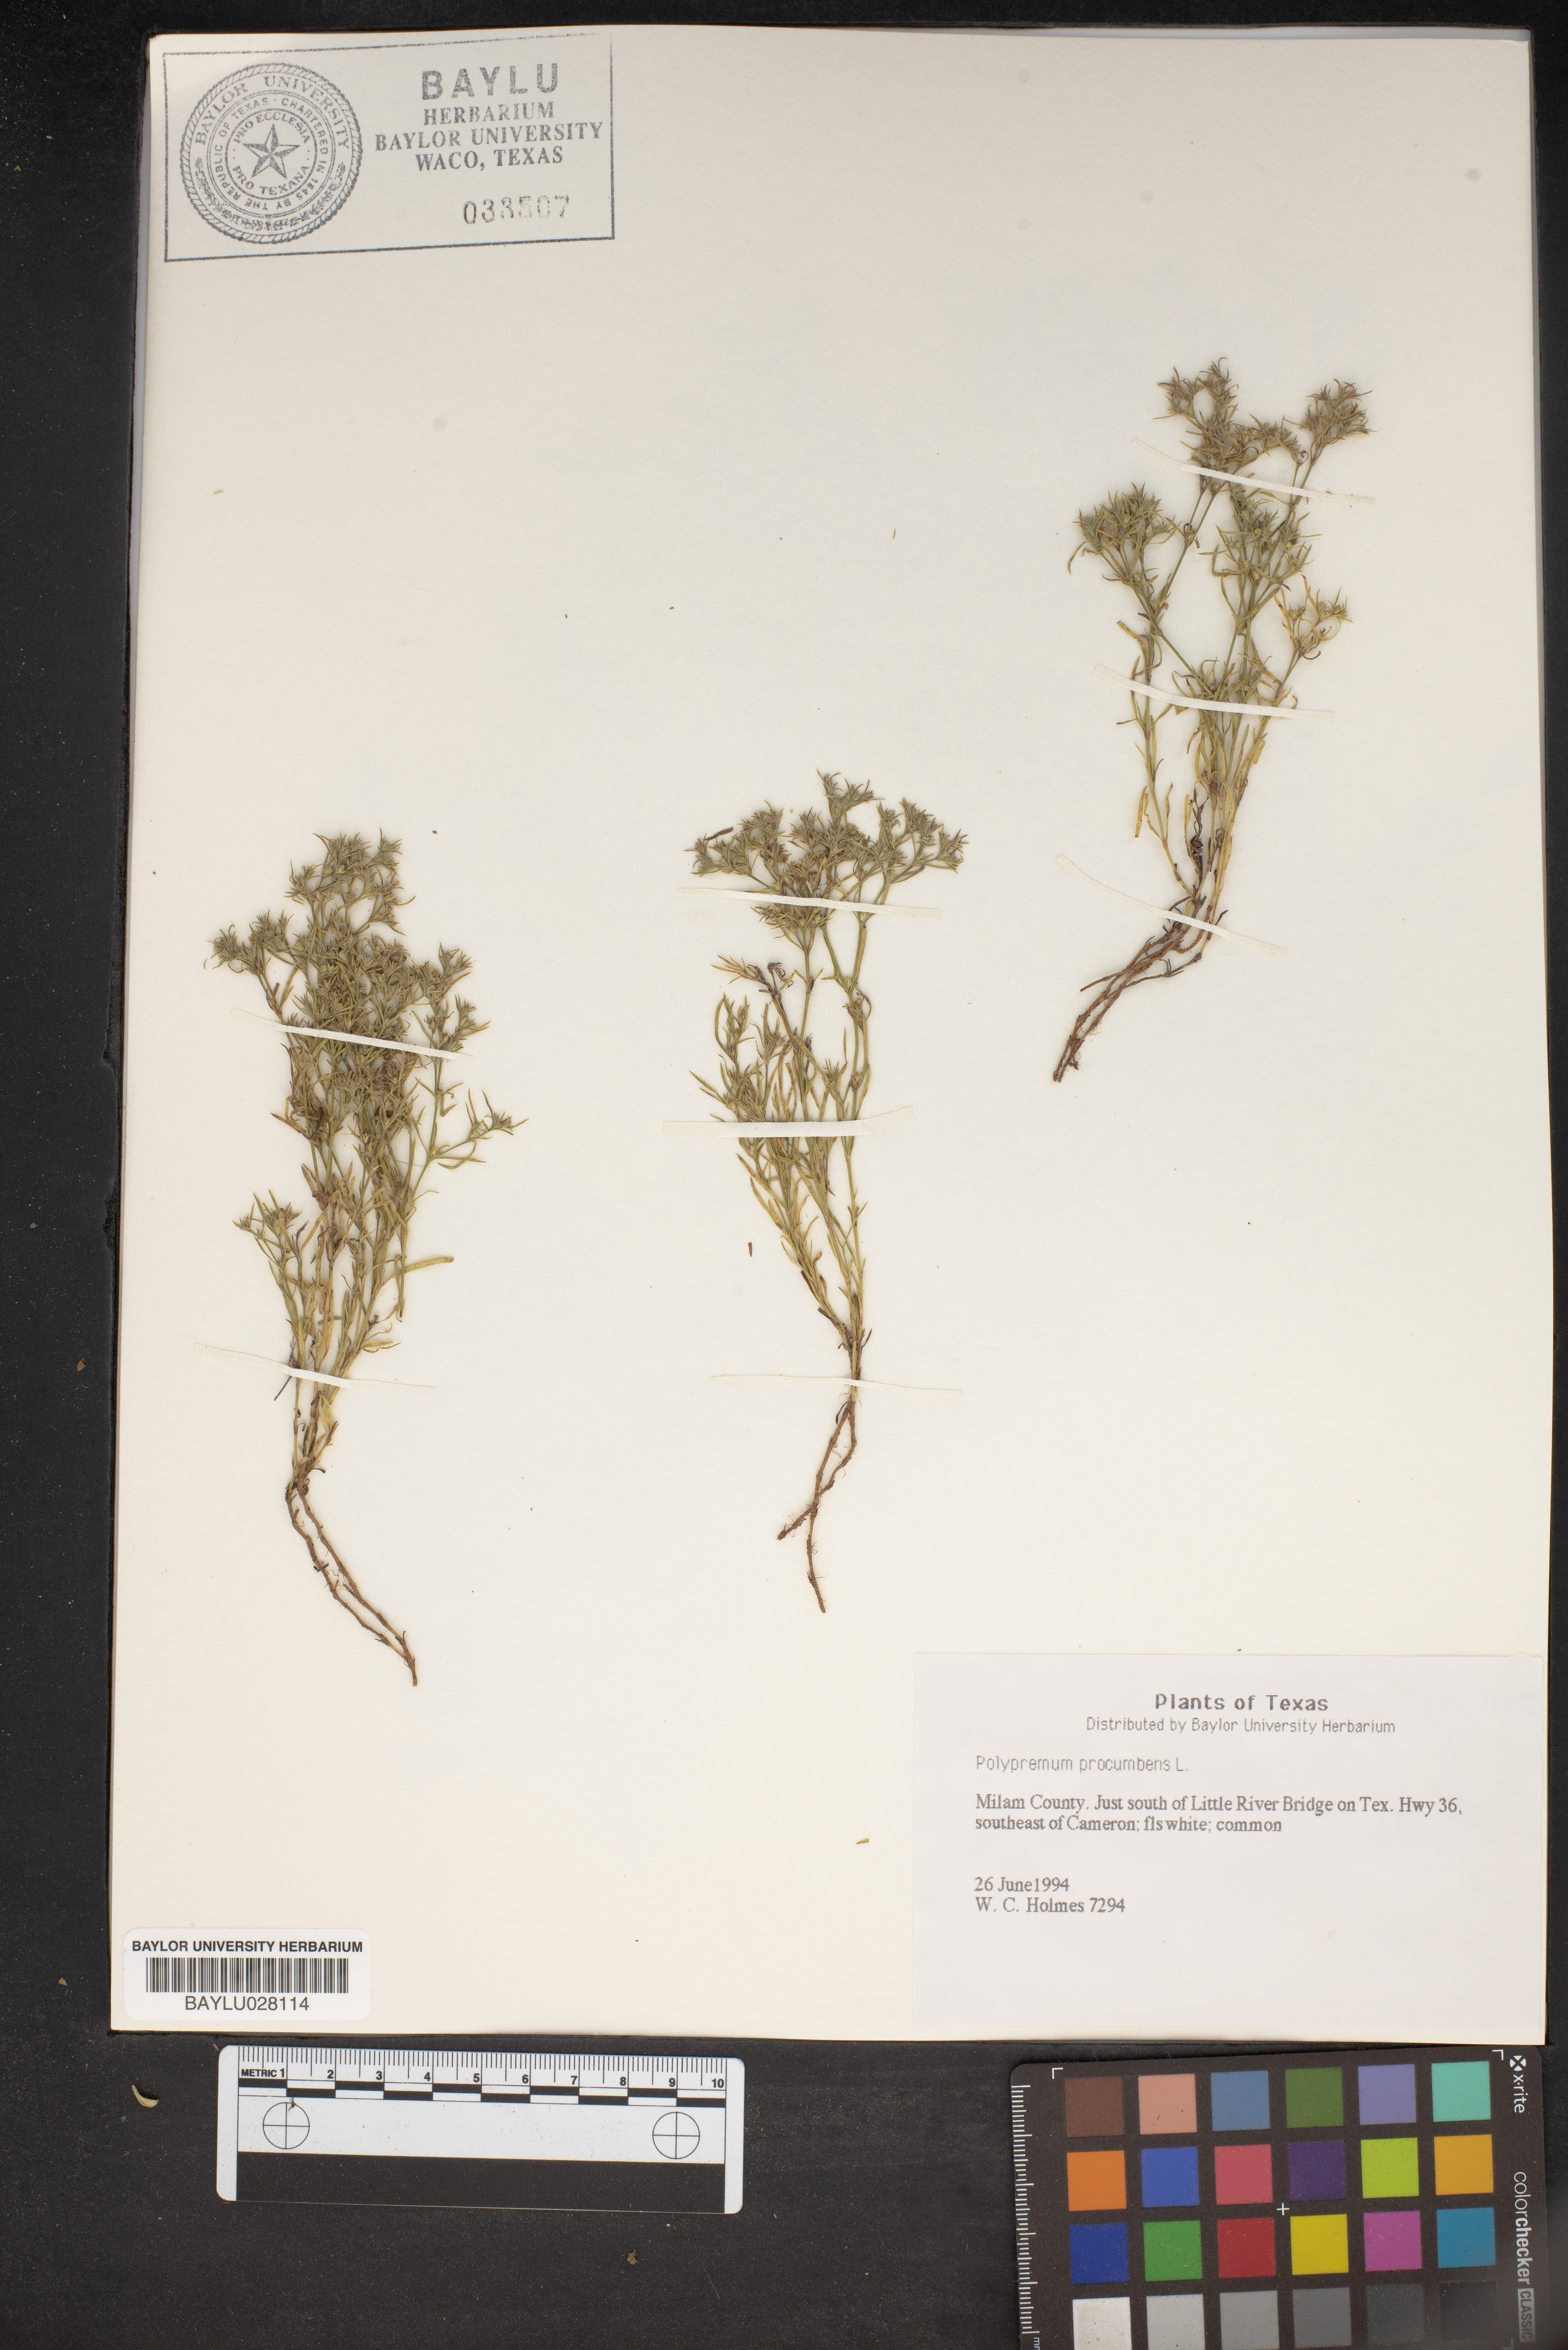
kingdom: Plantae
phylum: Tracheophyta
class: Magnoliopsida
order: Lamiales
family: Tetrachondraceae
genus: Polypremum
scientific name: Polypremum procumbens
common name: Juniper-leaf
